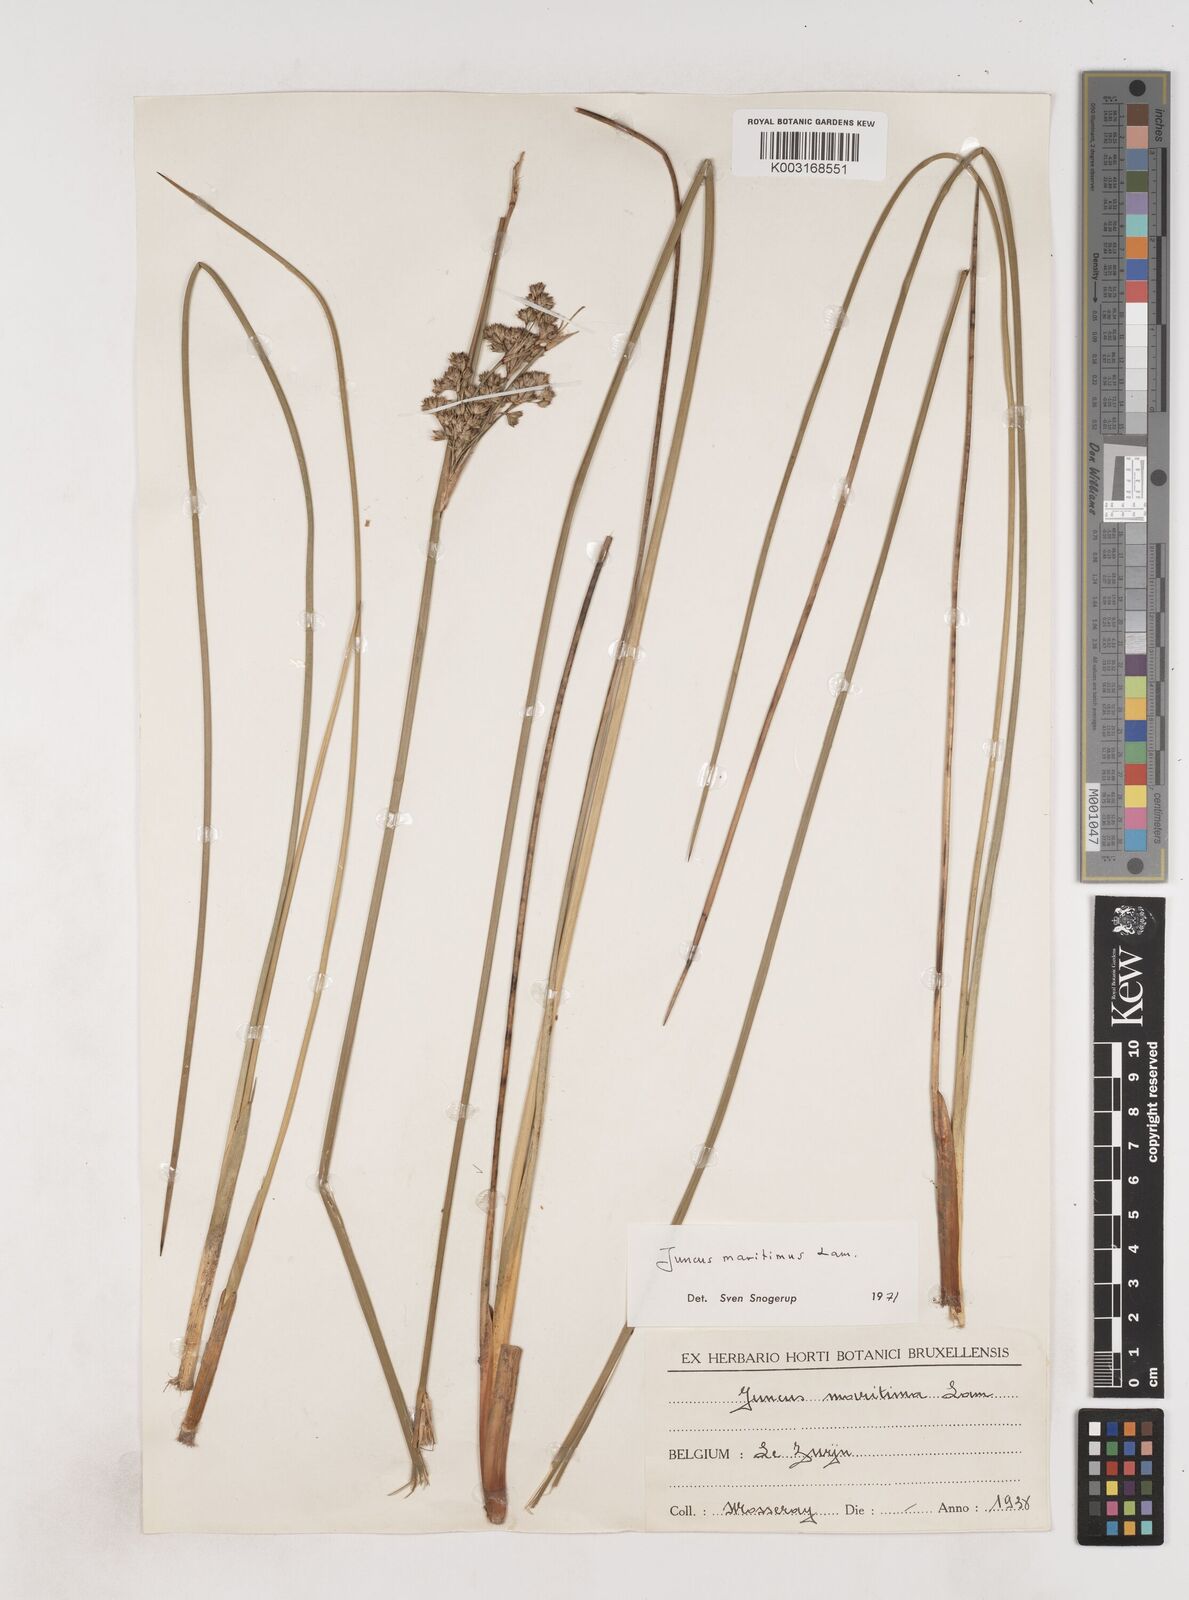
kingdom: Plantae
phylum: Tracheophyta
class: Liliopsida
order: Poales
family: Juncaceae
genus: Juncus
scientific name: Juncus maritimus
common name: Sea rush
